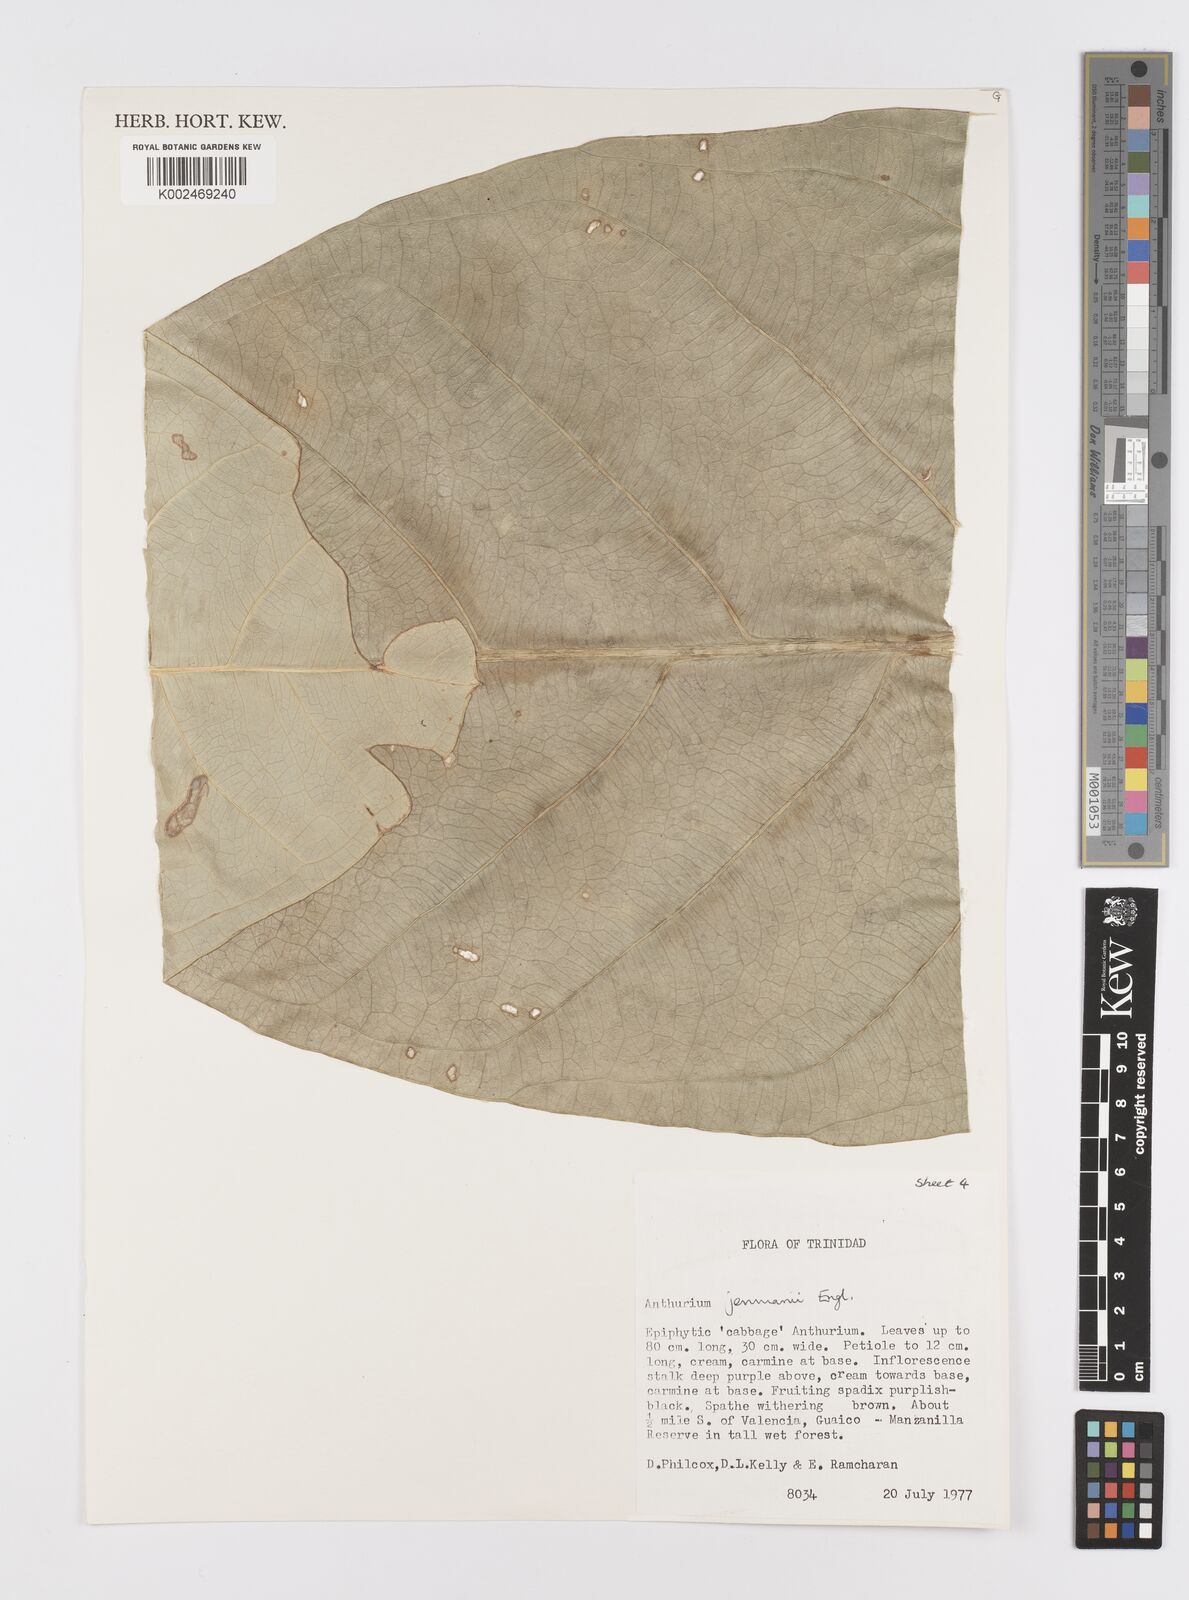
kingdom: Plantae
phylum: Tracheophyta
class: Liliopsida
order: Alismatales
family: Araceae
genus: Anthurium
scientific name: Anthurium jenmanii
